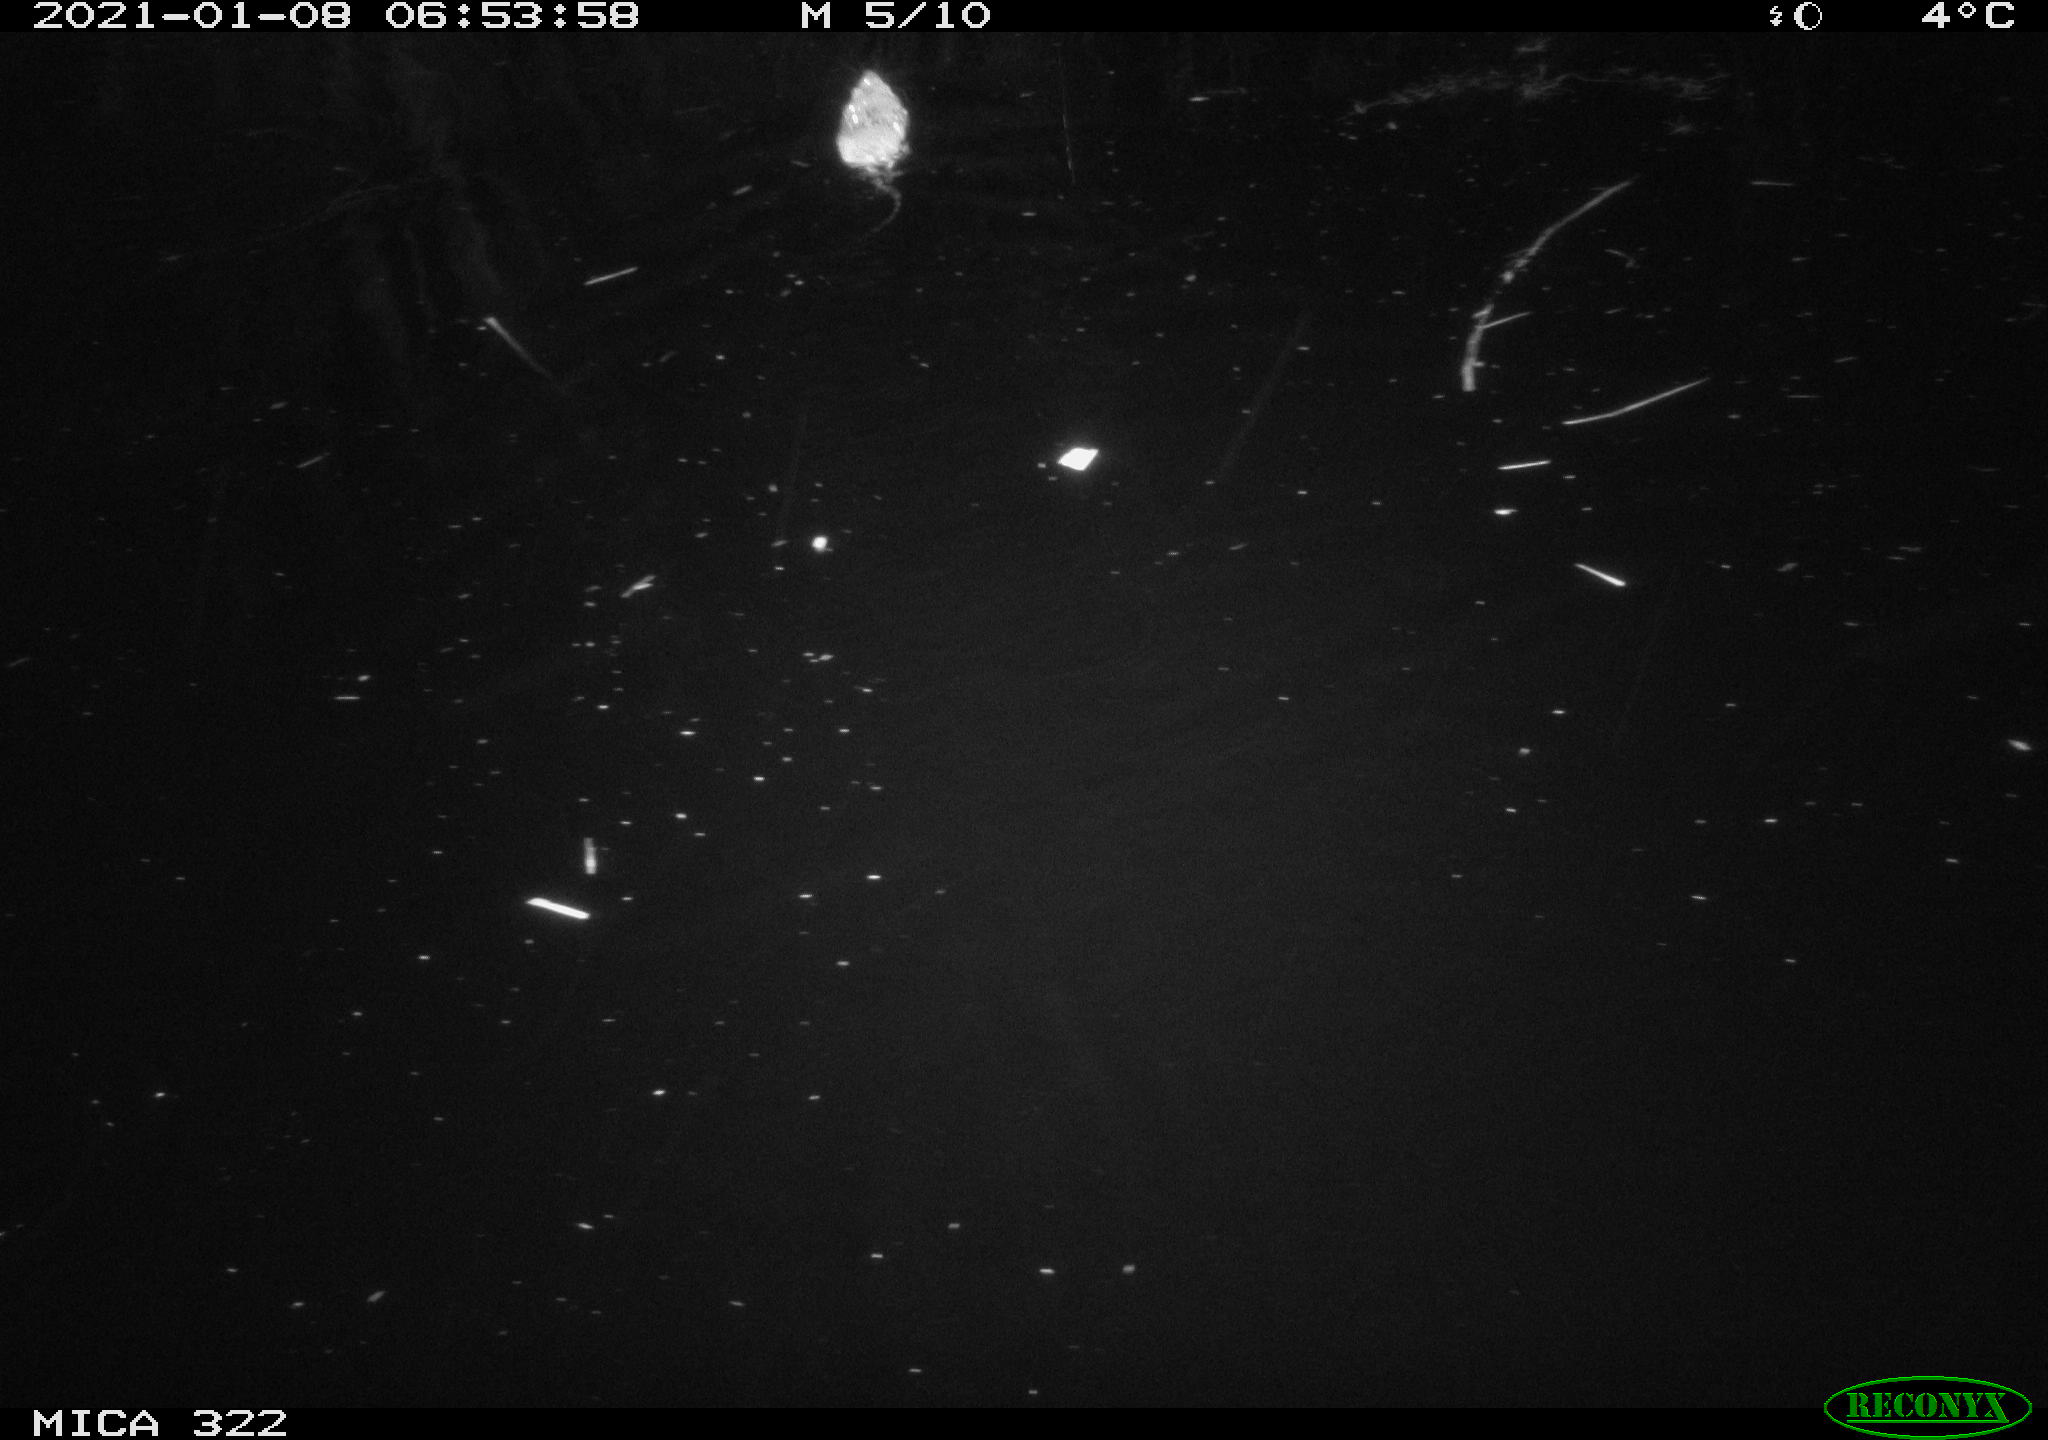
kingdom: Animalia
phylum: Chordata
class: Mammalia
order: Rodentia
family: Muridae
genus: Rattus
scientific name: Rattus norvegicus
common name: Brown rat
